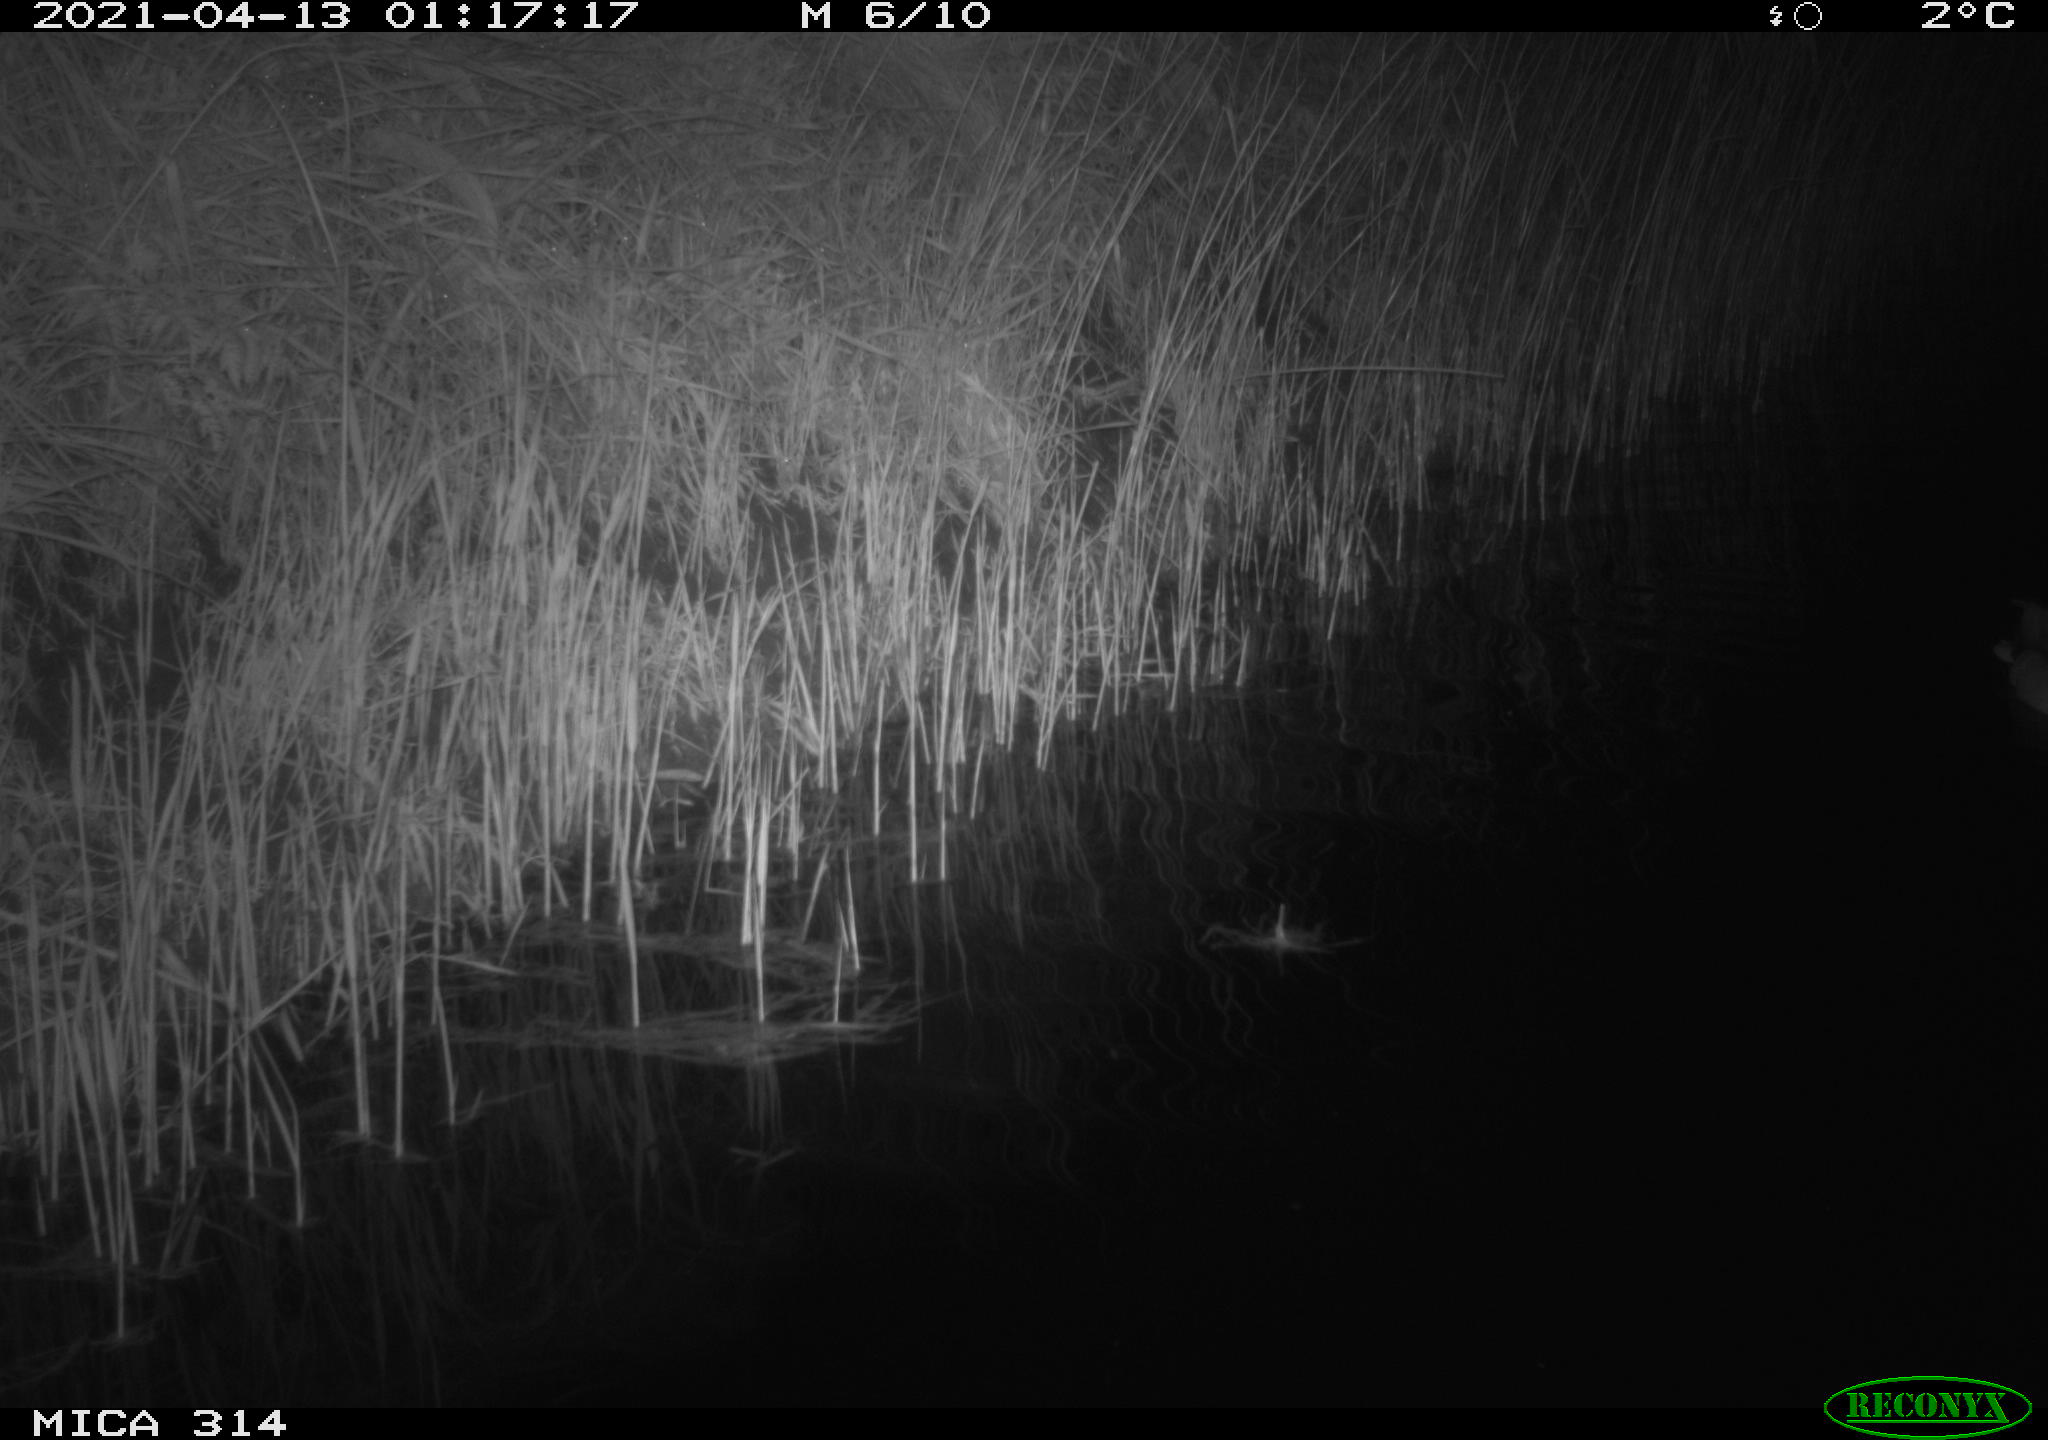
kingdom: Animalia
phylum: Chordata
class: Aves
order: Anseriformes
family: Anatidae
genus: Anas
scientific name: Anas platyrhynchos
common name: Mallard
